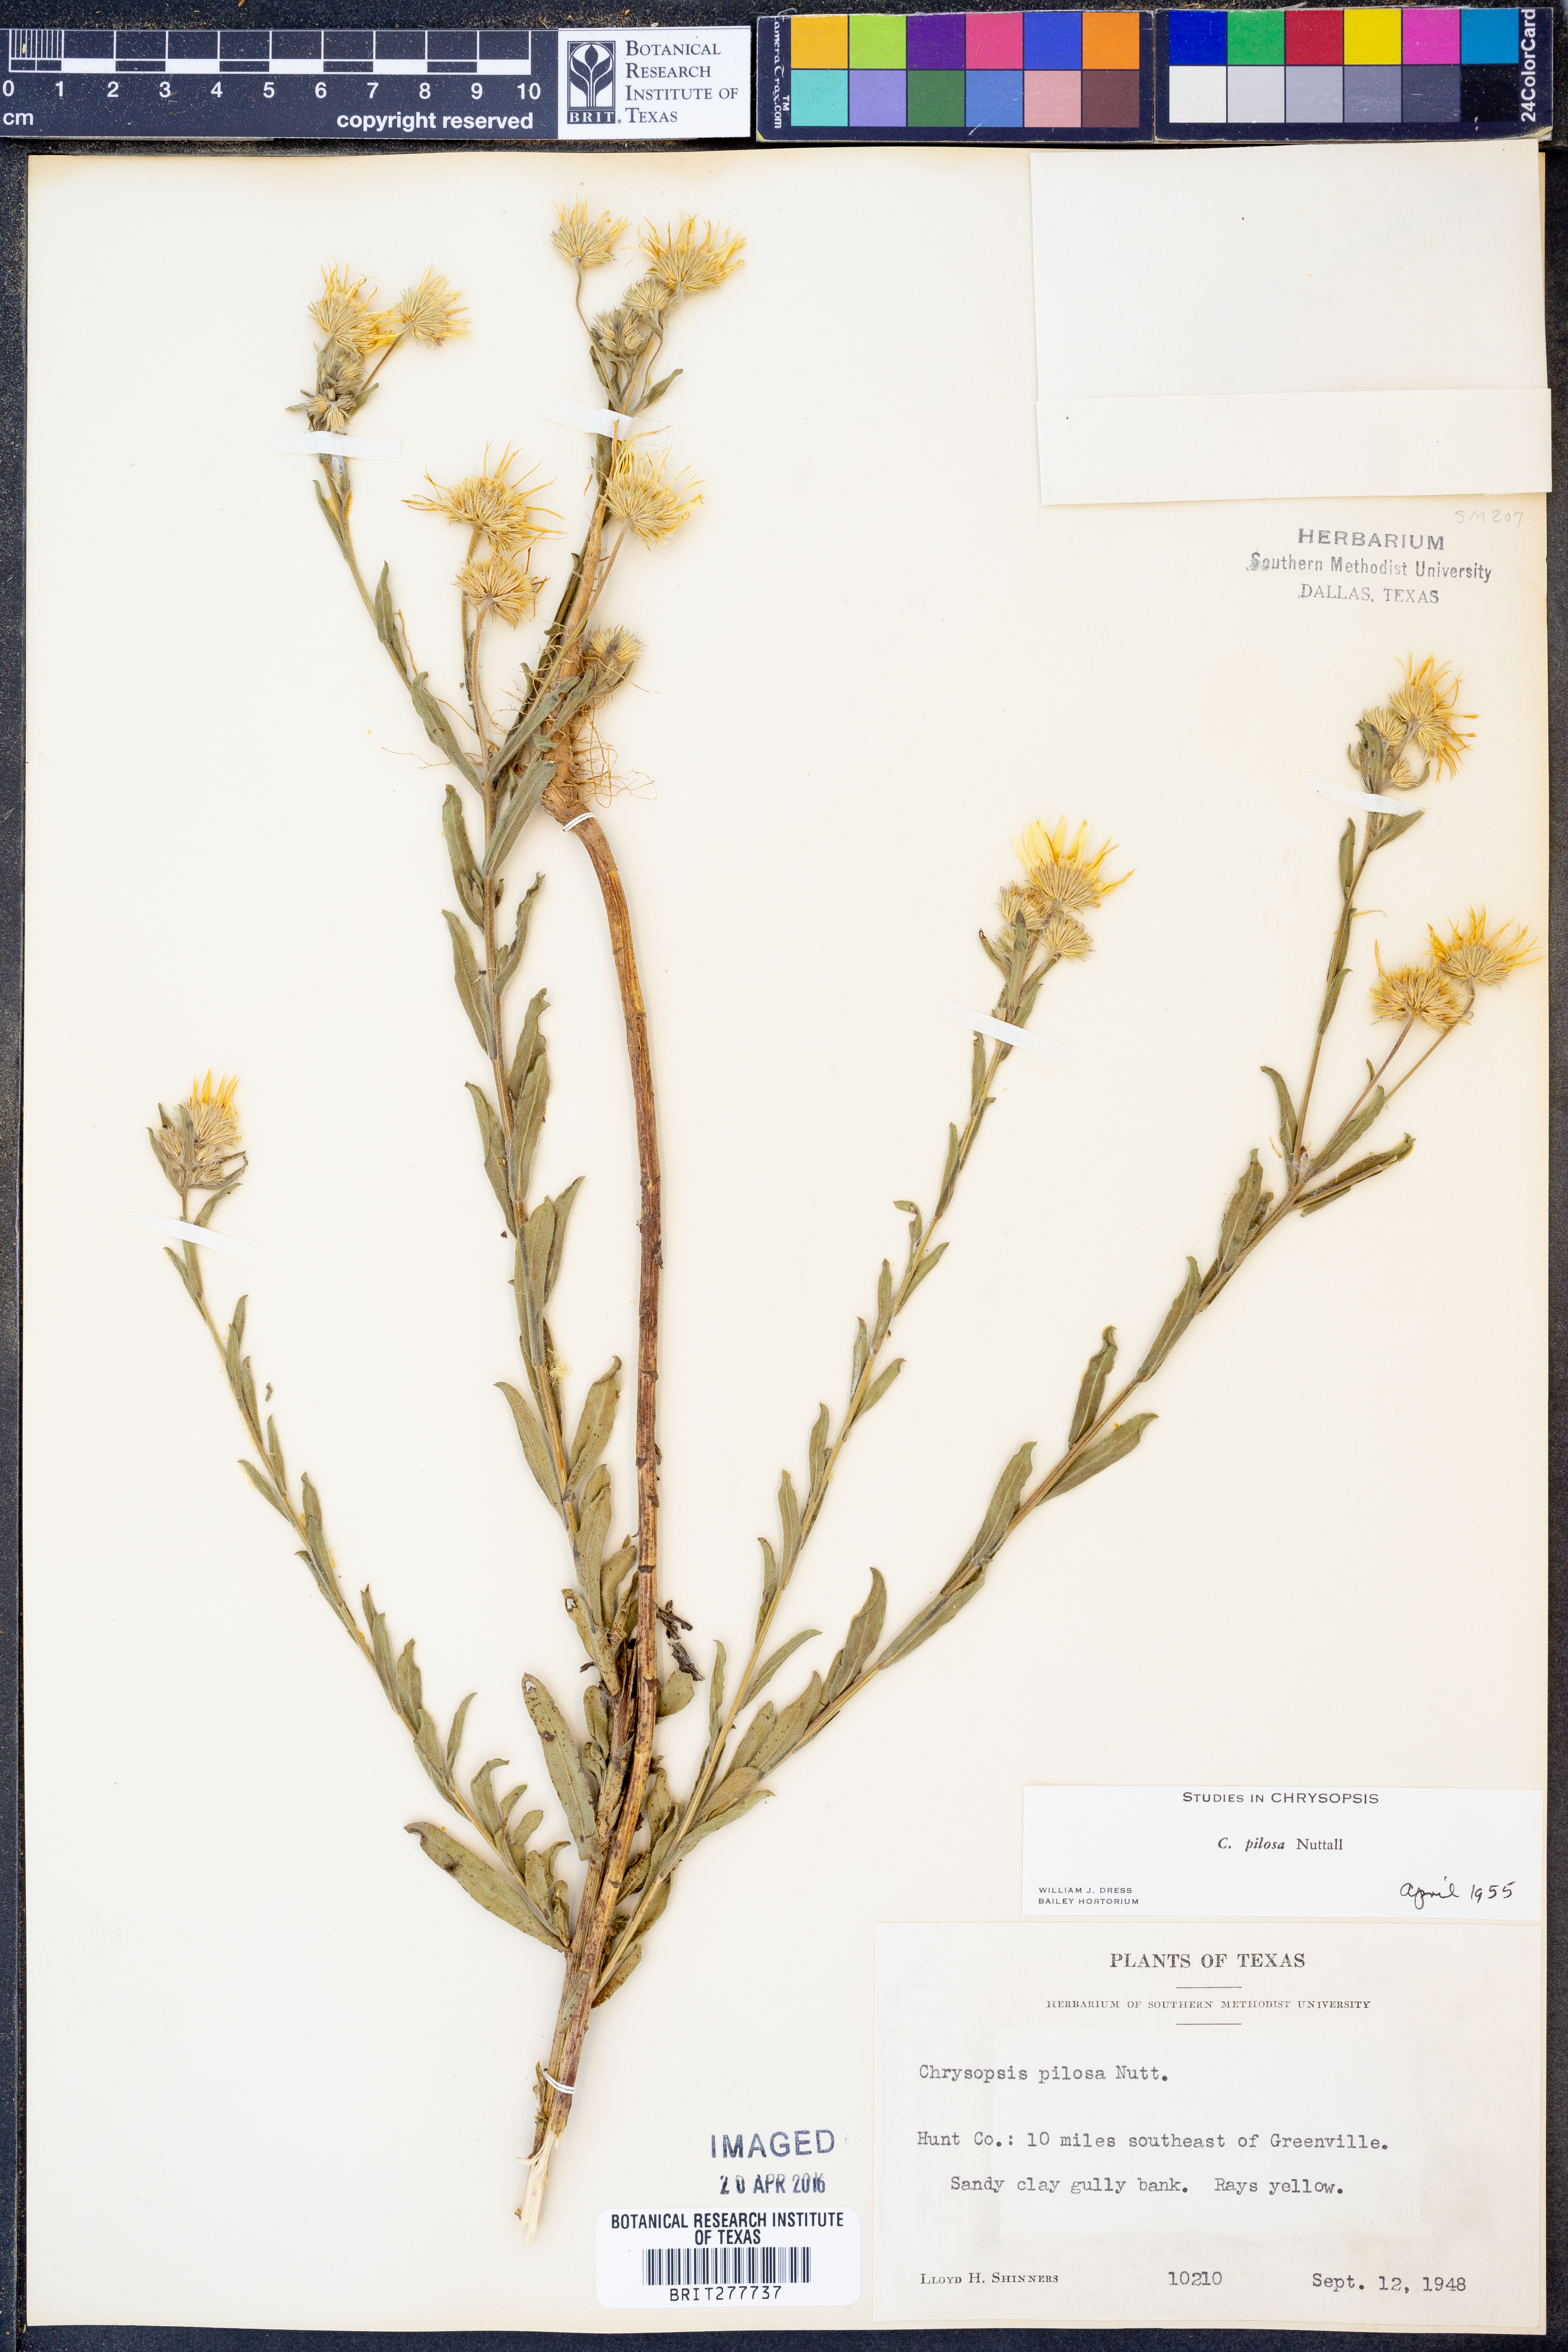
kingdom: Plantae
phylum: Tracheophyta
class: Magnoliopsida
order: Asterales
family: Asteraceae
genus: Bradburia
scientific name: Bradburia pilosa
